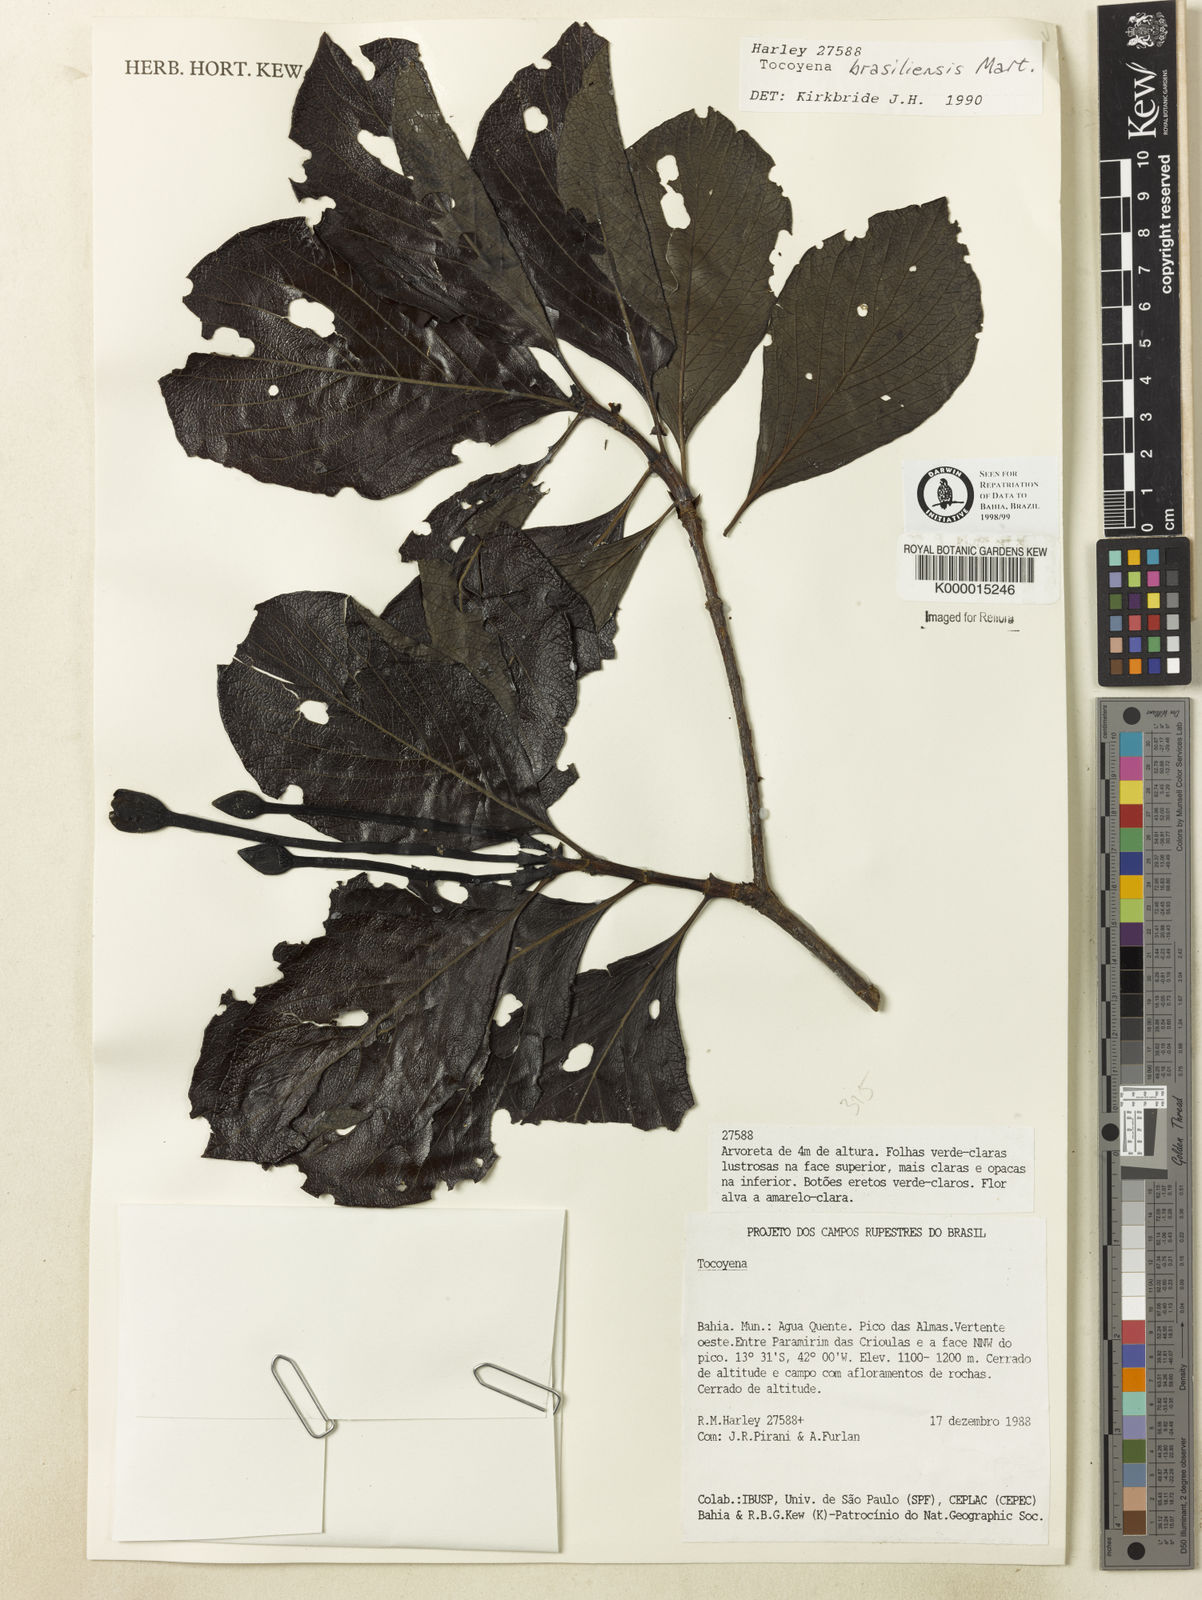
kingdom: Plantae
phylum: Tracheophyta
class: Liliopsida
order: Poales
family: Poaceae
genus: Bromuniola
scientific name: Bromuniola gossweileri
